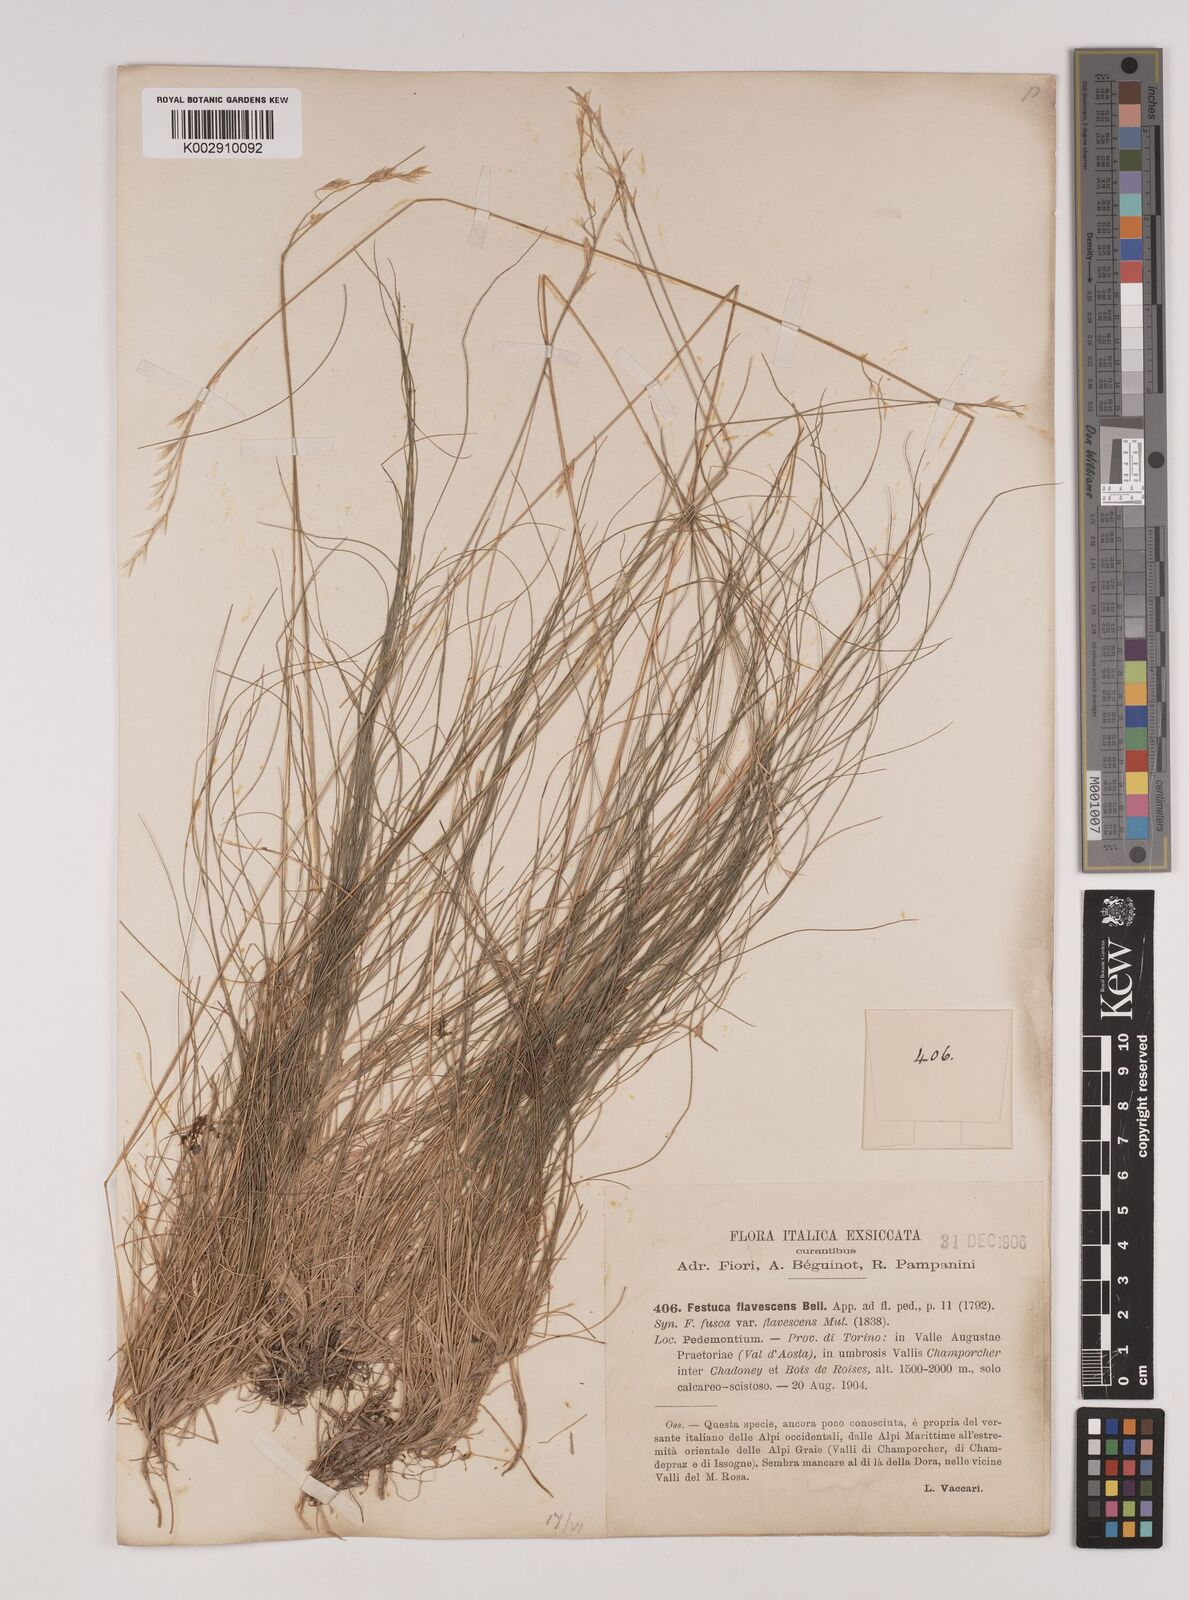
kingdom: Plantae
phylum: Tracheophyta
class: Liliopsida
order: Poales
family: Poaceae
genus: Festuca
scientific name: Festuca flavescens
